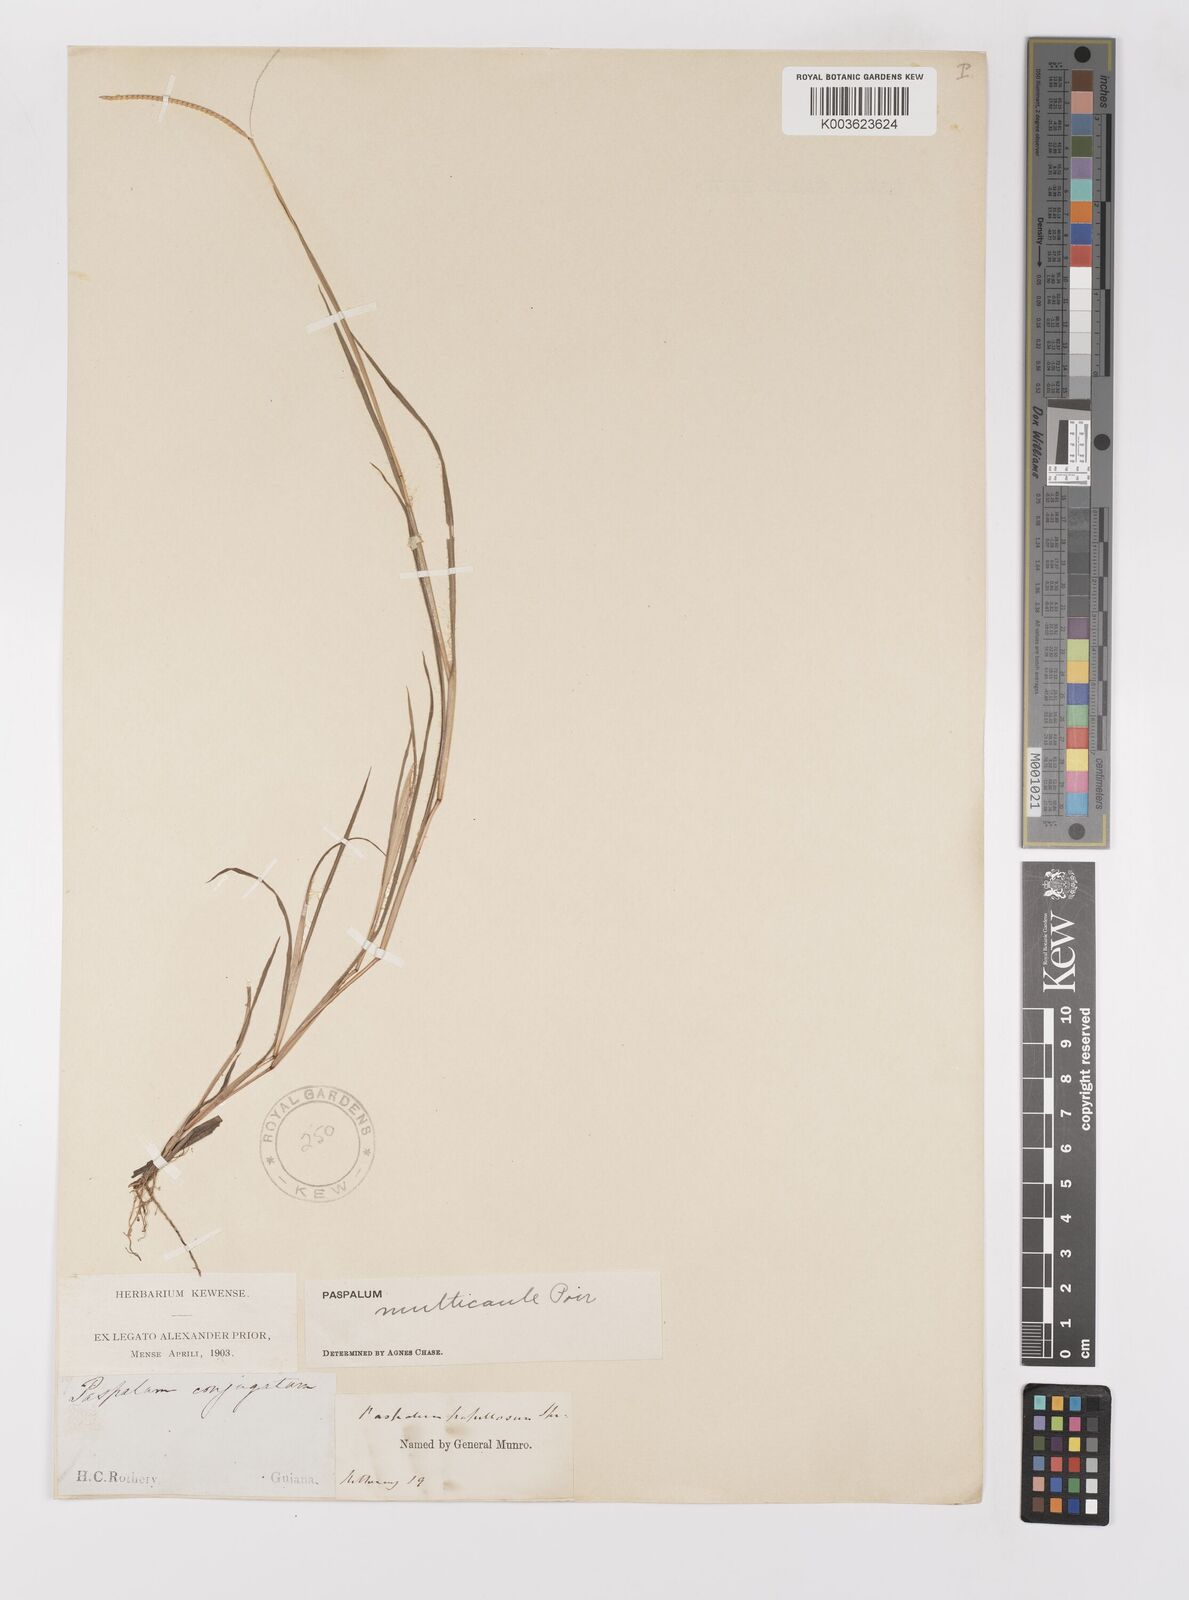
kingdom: Plantae
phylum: Tracheophyta
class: Liliopsida
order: Poales
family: Poaceae
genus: Paspalum
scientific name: Paspalum multicaule
